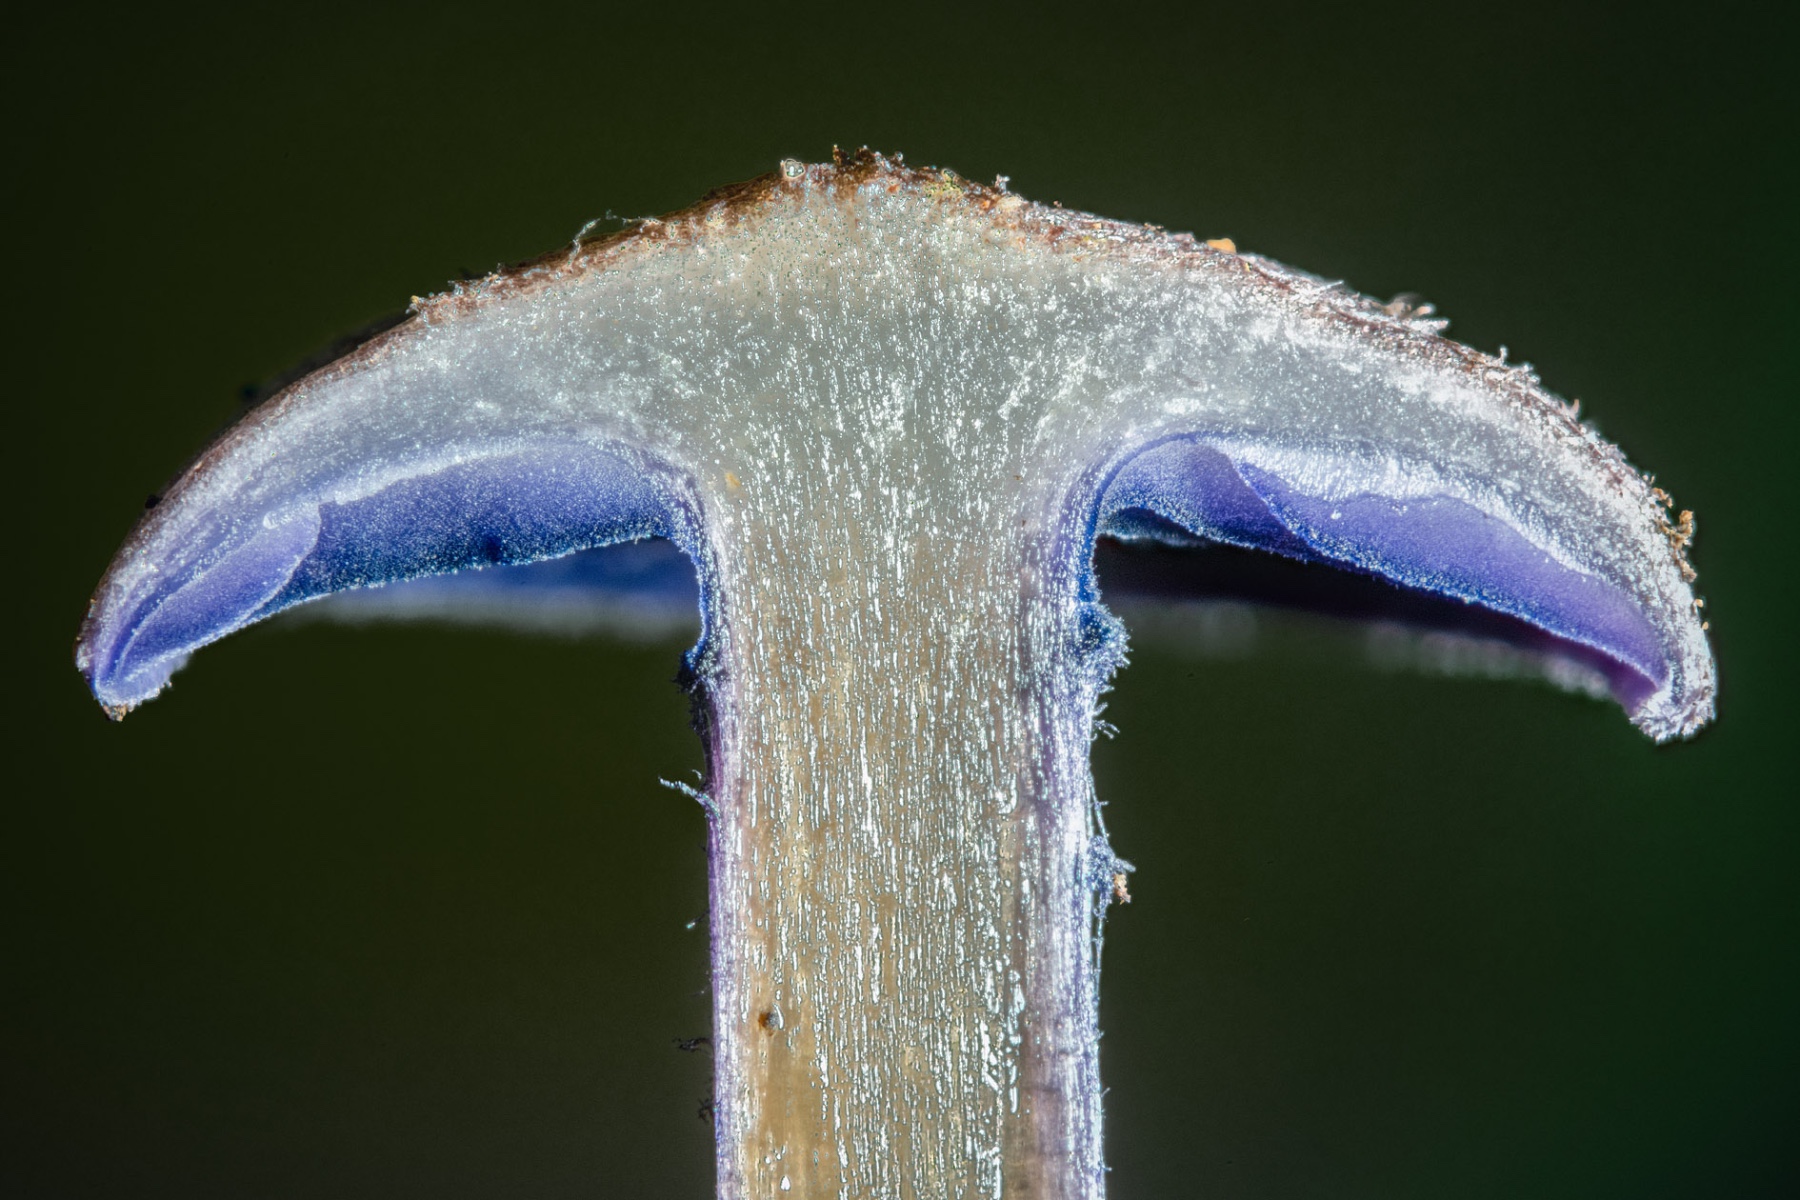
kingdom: Fungi
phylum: Basidiomycota
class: Agaricomycetes
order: Agaricales
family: Entolomataceae
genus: Entoloma
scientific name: Entoloma euchroum
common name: smuk rødblad
